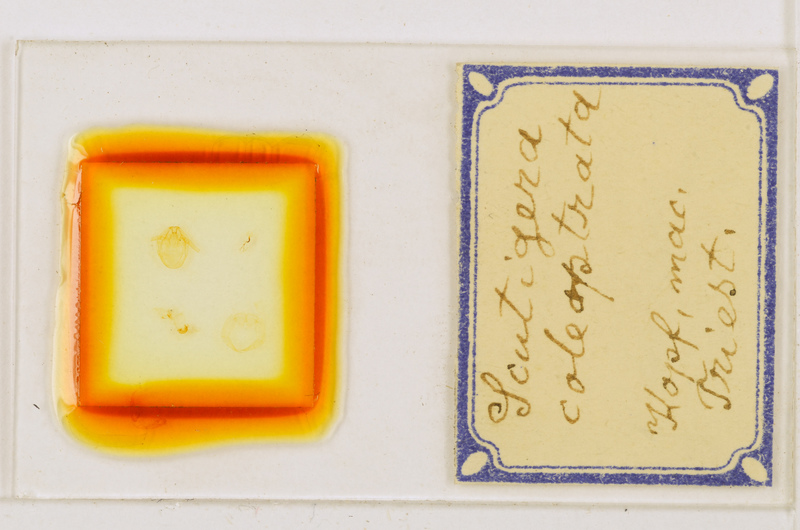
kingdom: Animalia
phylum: Arthropoda
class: Chilopoda
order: Scutigeromorpha
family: Scutigeridae
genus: Scutigera
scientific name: Scutigera coleoptrata
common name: House centipede
